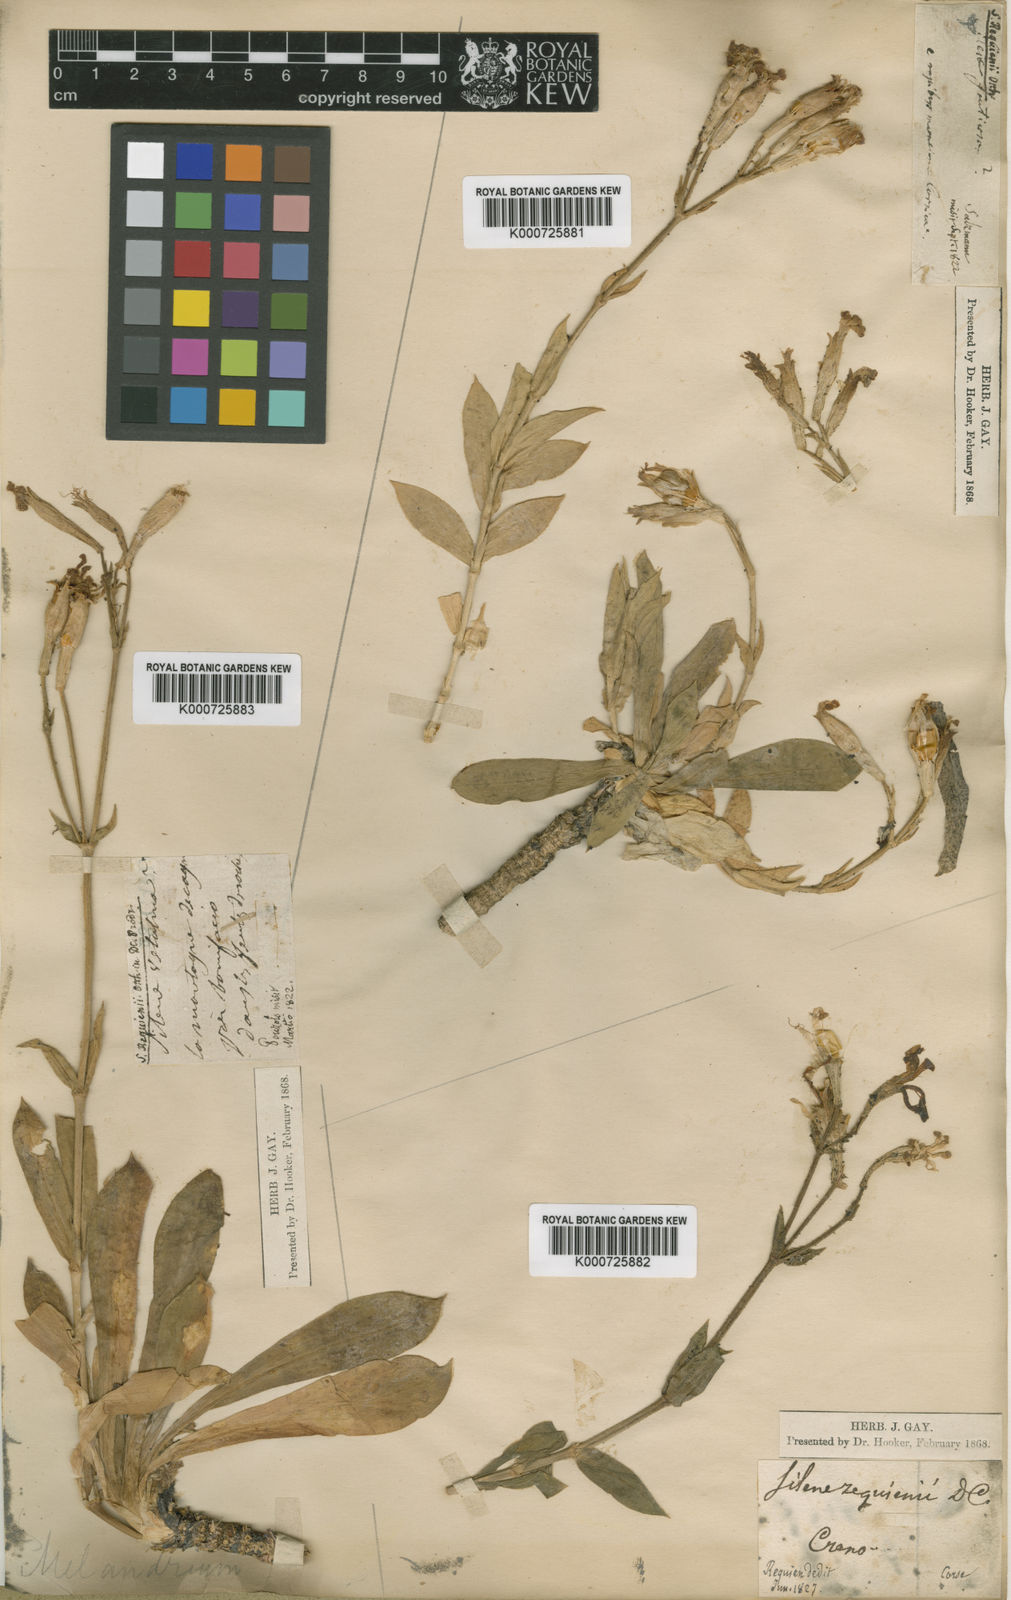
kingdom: Plantae
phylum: Tracheophyta
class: Magnoliopsida
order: Caryophyllales
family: Caryophyllaceae
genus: Silene
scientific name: Silene requienii
